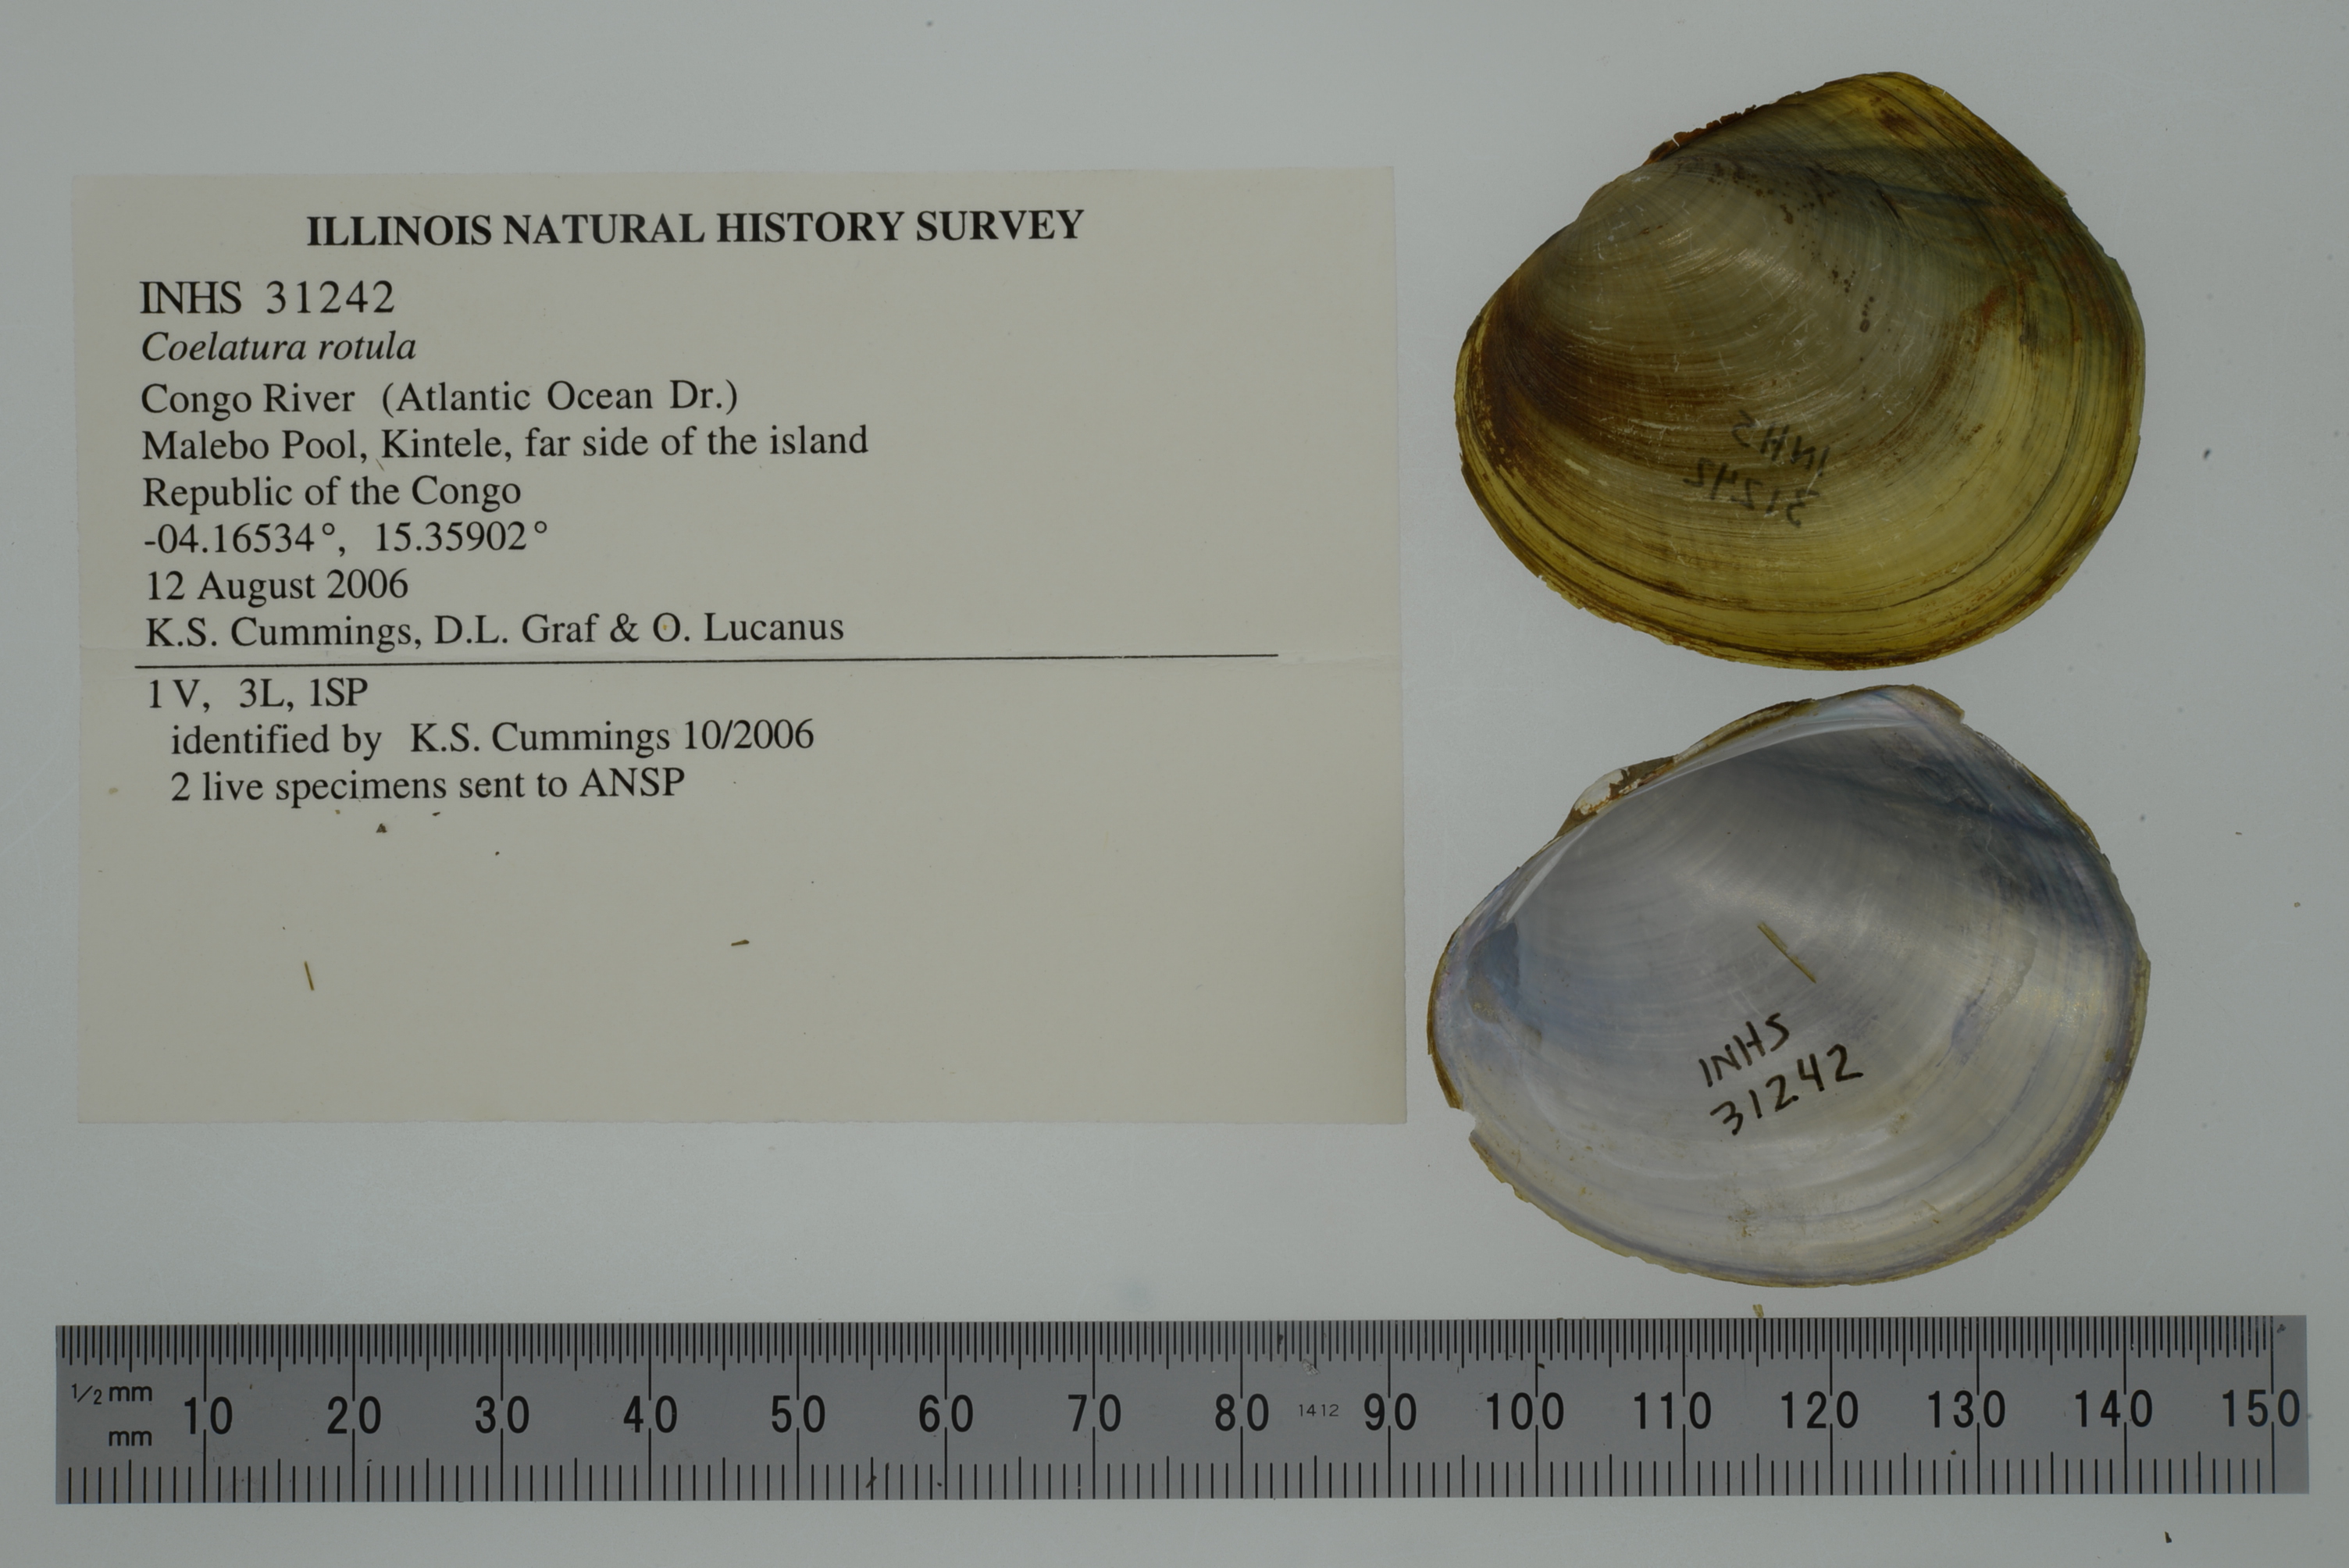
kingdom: Animalia
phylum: Mollusca
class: Bivalvia
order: Unionida
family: Unionidae
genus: Coelatura
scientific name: Coelatura disciformis
